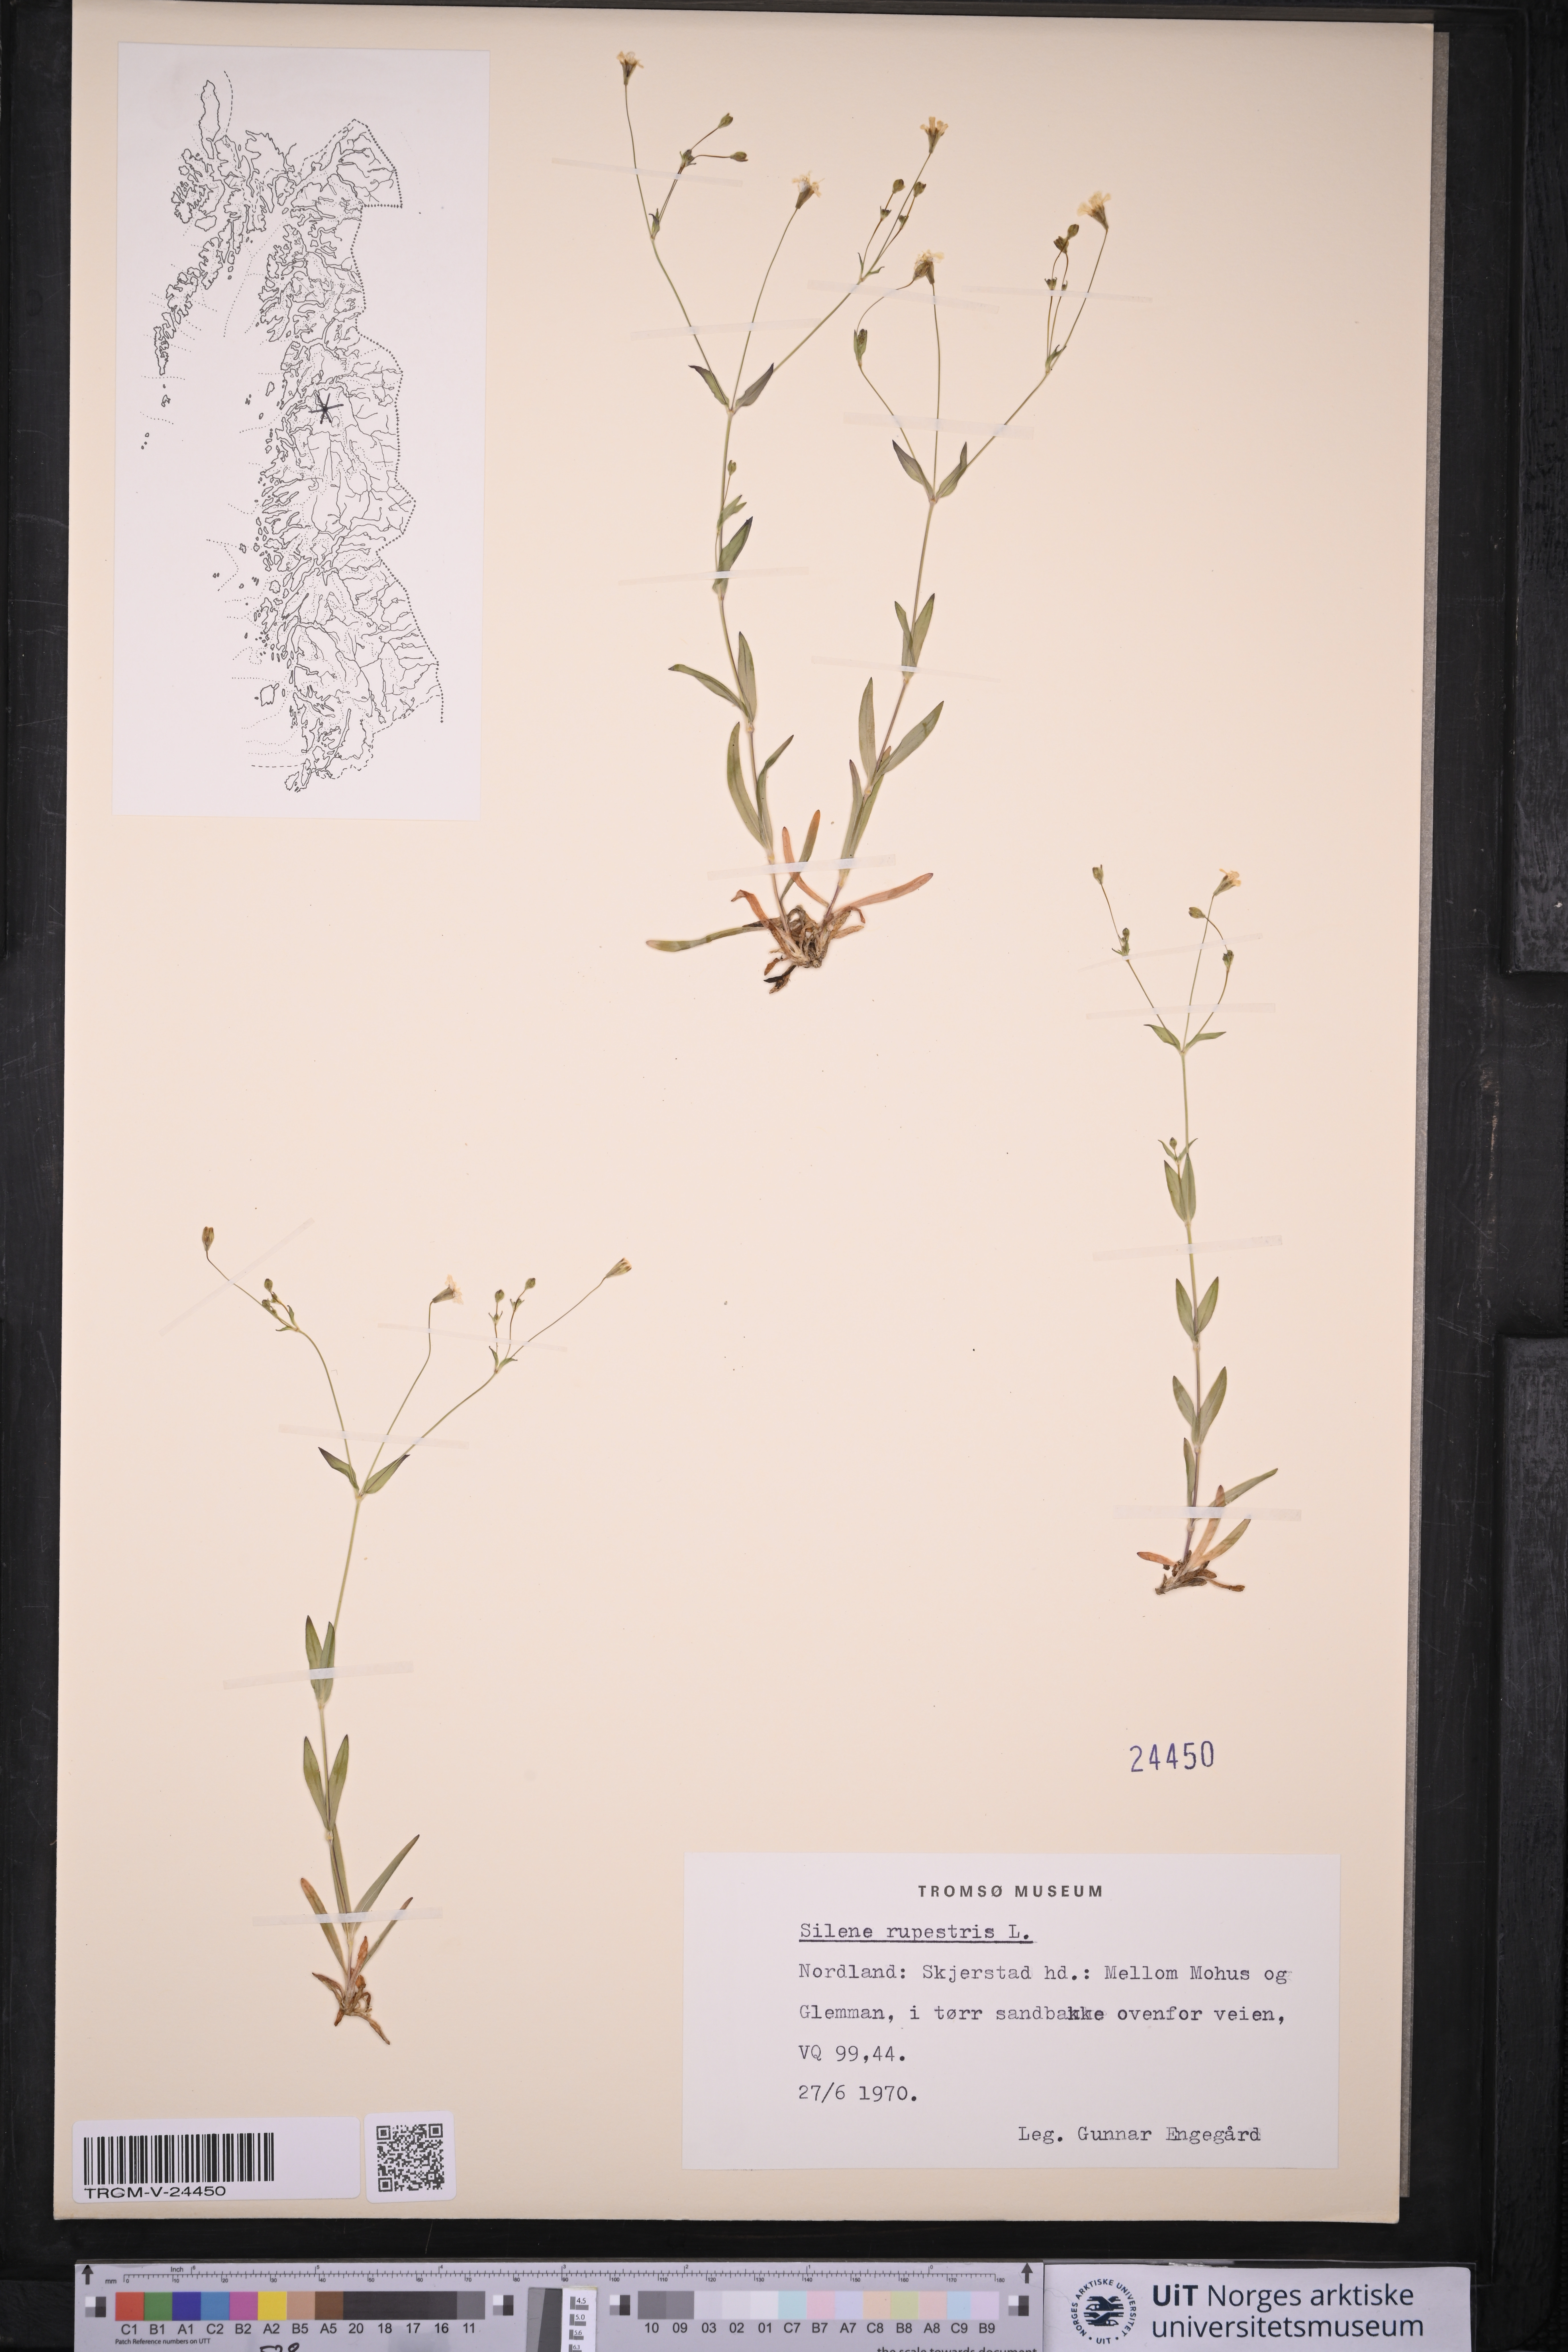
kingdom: Plantae
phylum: Tracheophyta
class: Magnoliopsida
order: Caryophyllales
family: Caryophyllaceae
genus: Atocion
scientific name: Atocion rupestre
